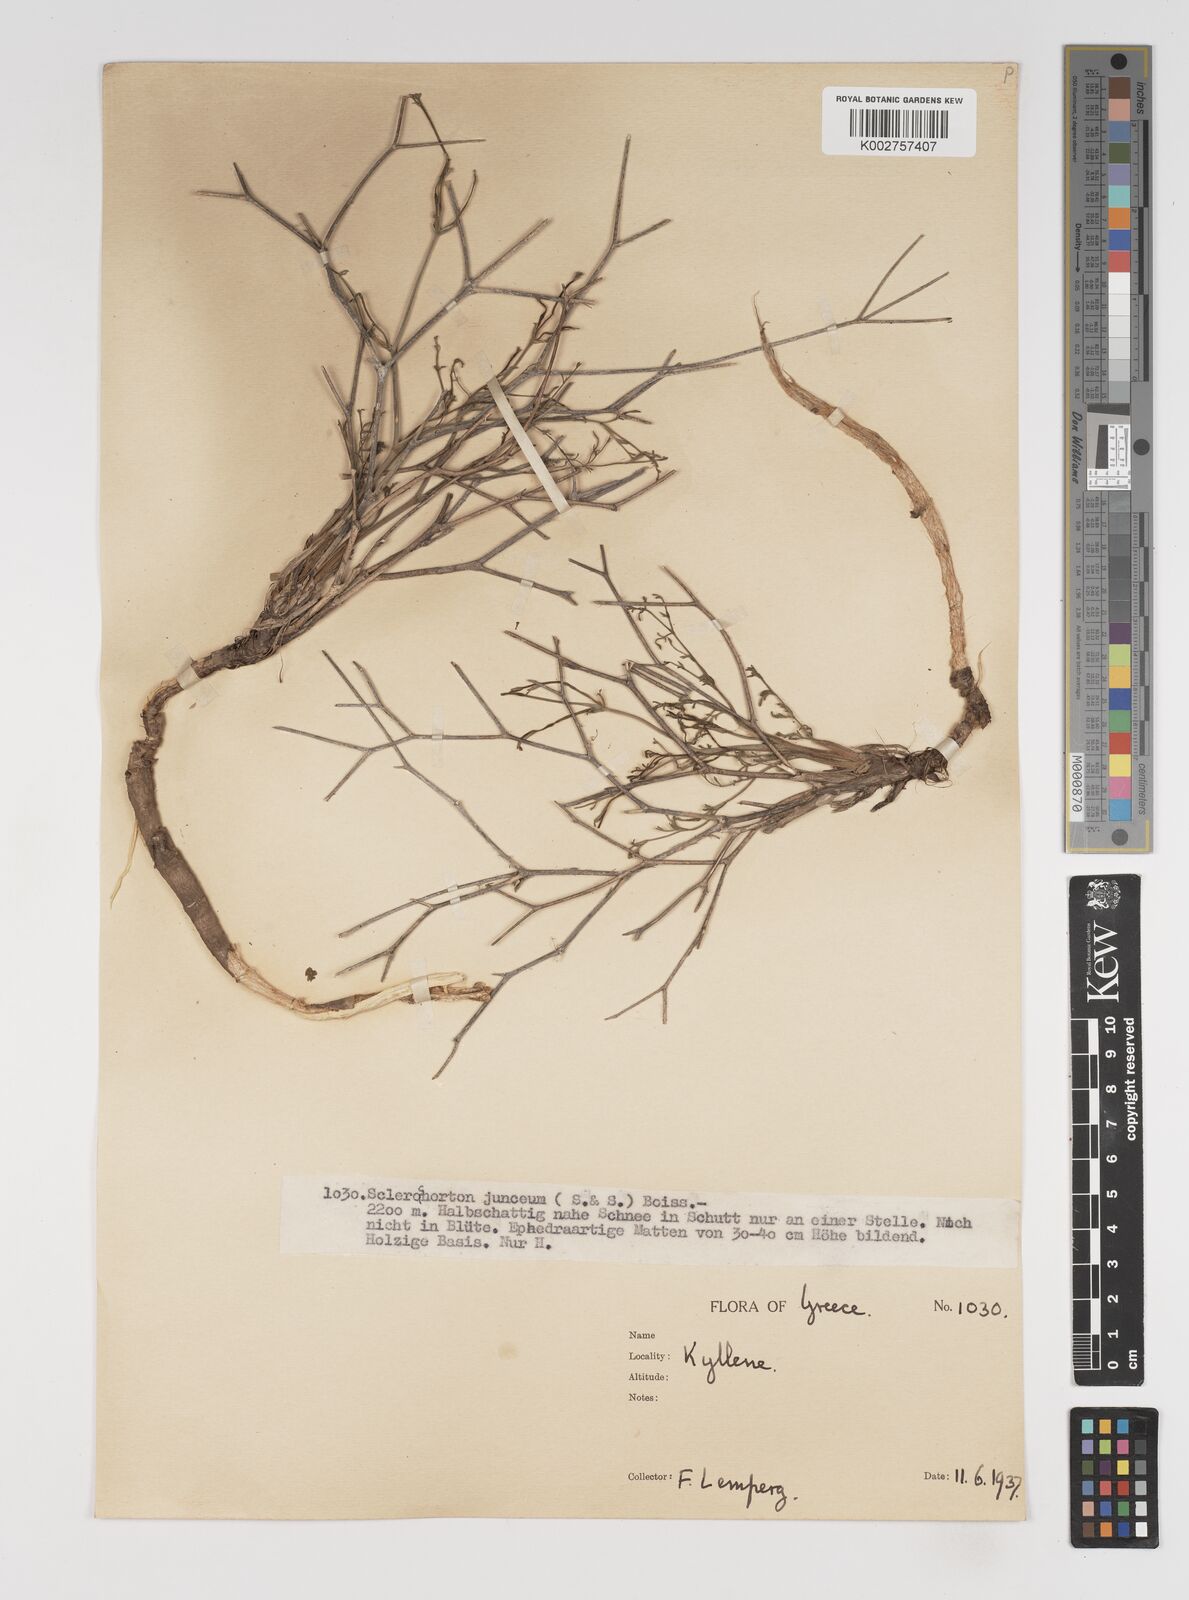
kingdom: Plantae
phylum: Tracheophyta
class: Magnoliopsida
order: Apiales
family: Apiaceae
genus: Thamnosciadium
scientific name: Thamnosciadium junceum
